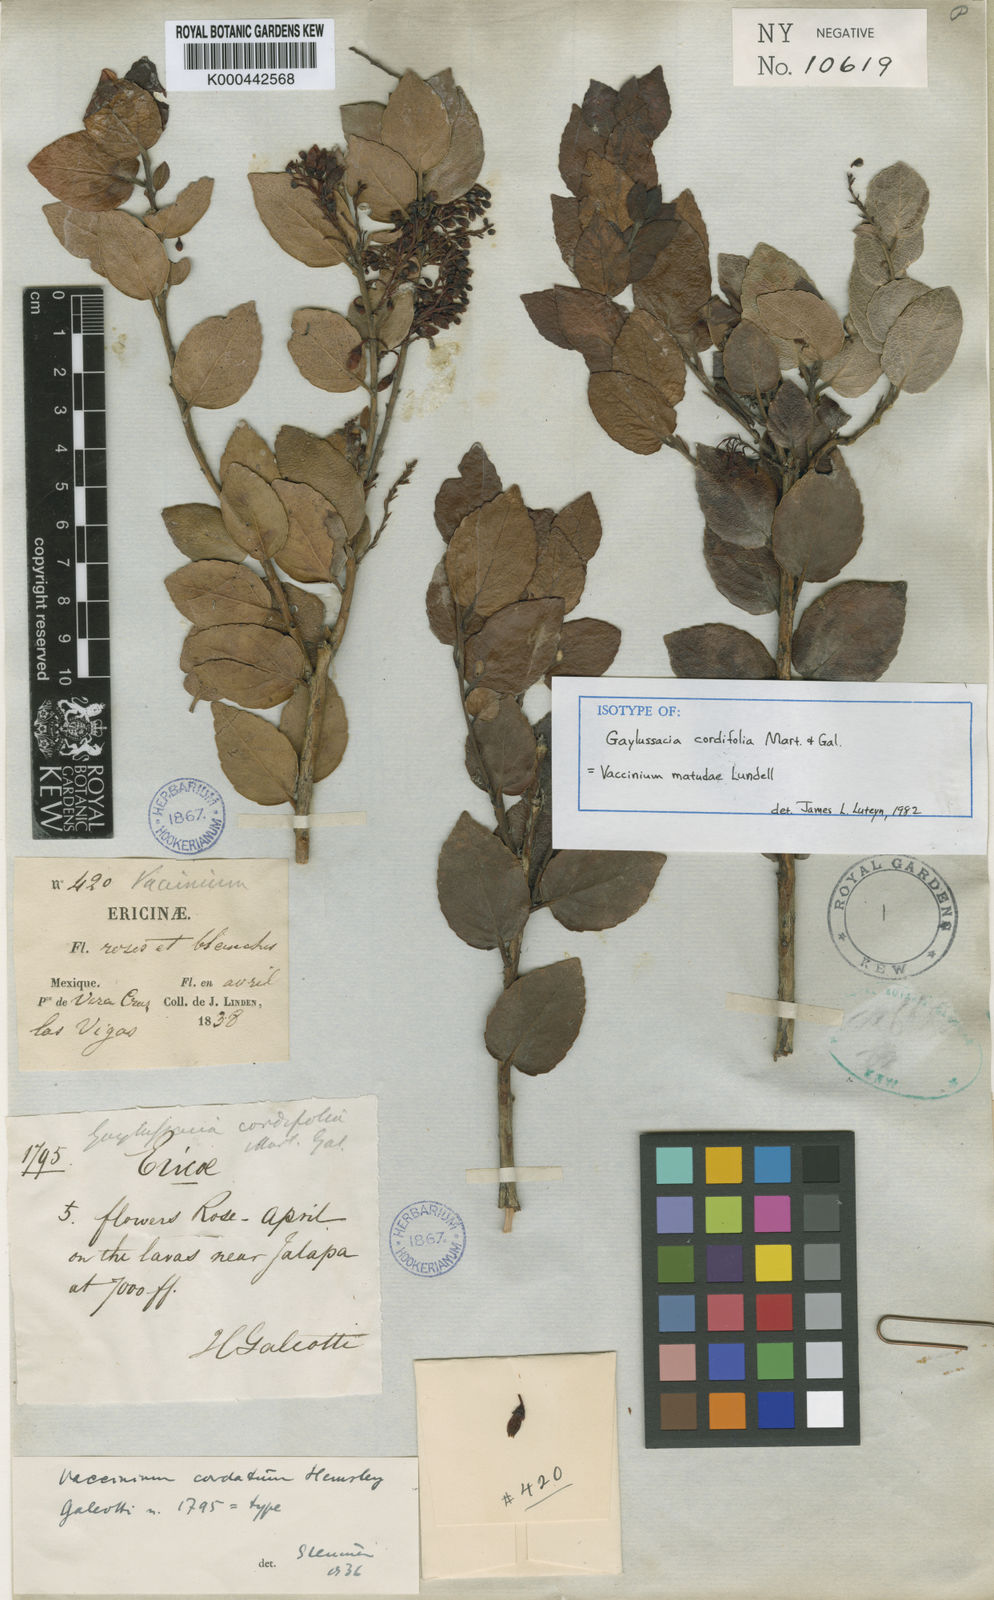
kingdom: Plantae
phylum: Tracheophyta
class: Magnoliopsida
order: Ericales
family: Ericaceae
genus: Vaccinium
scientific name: Vaccinium cordifolium
